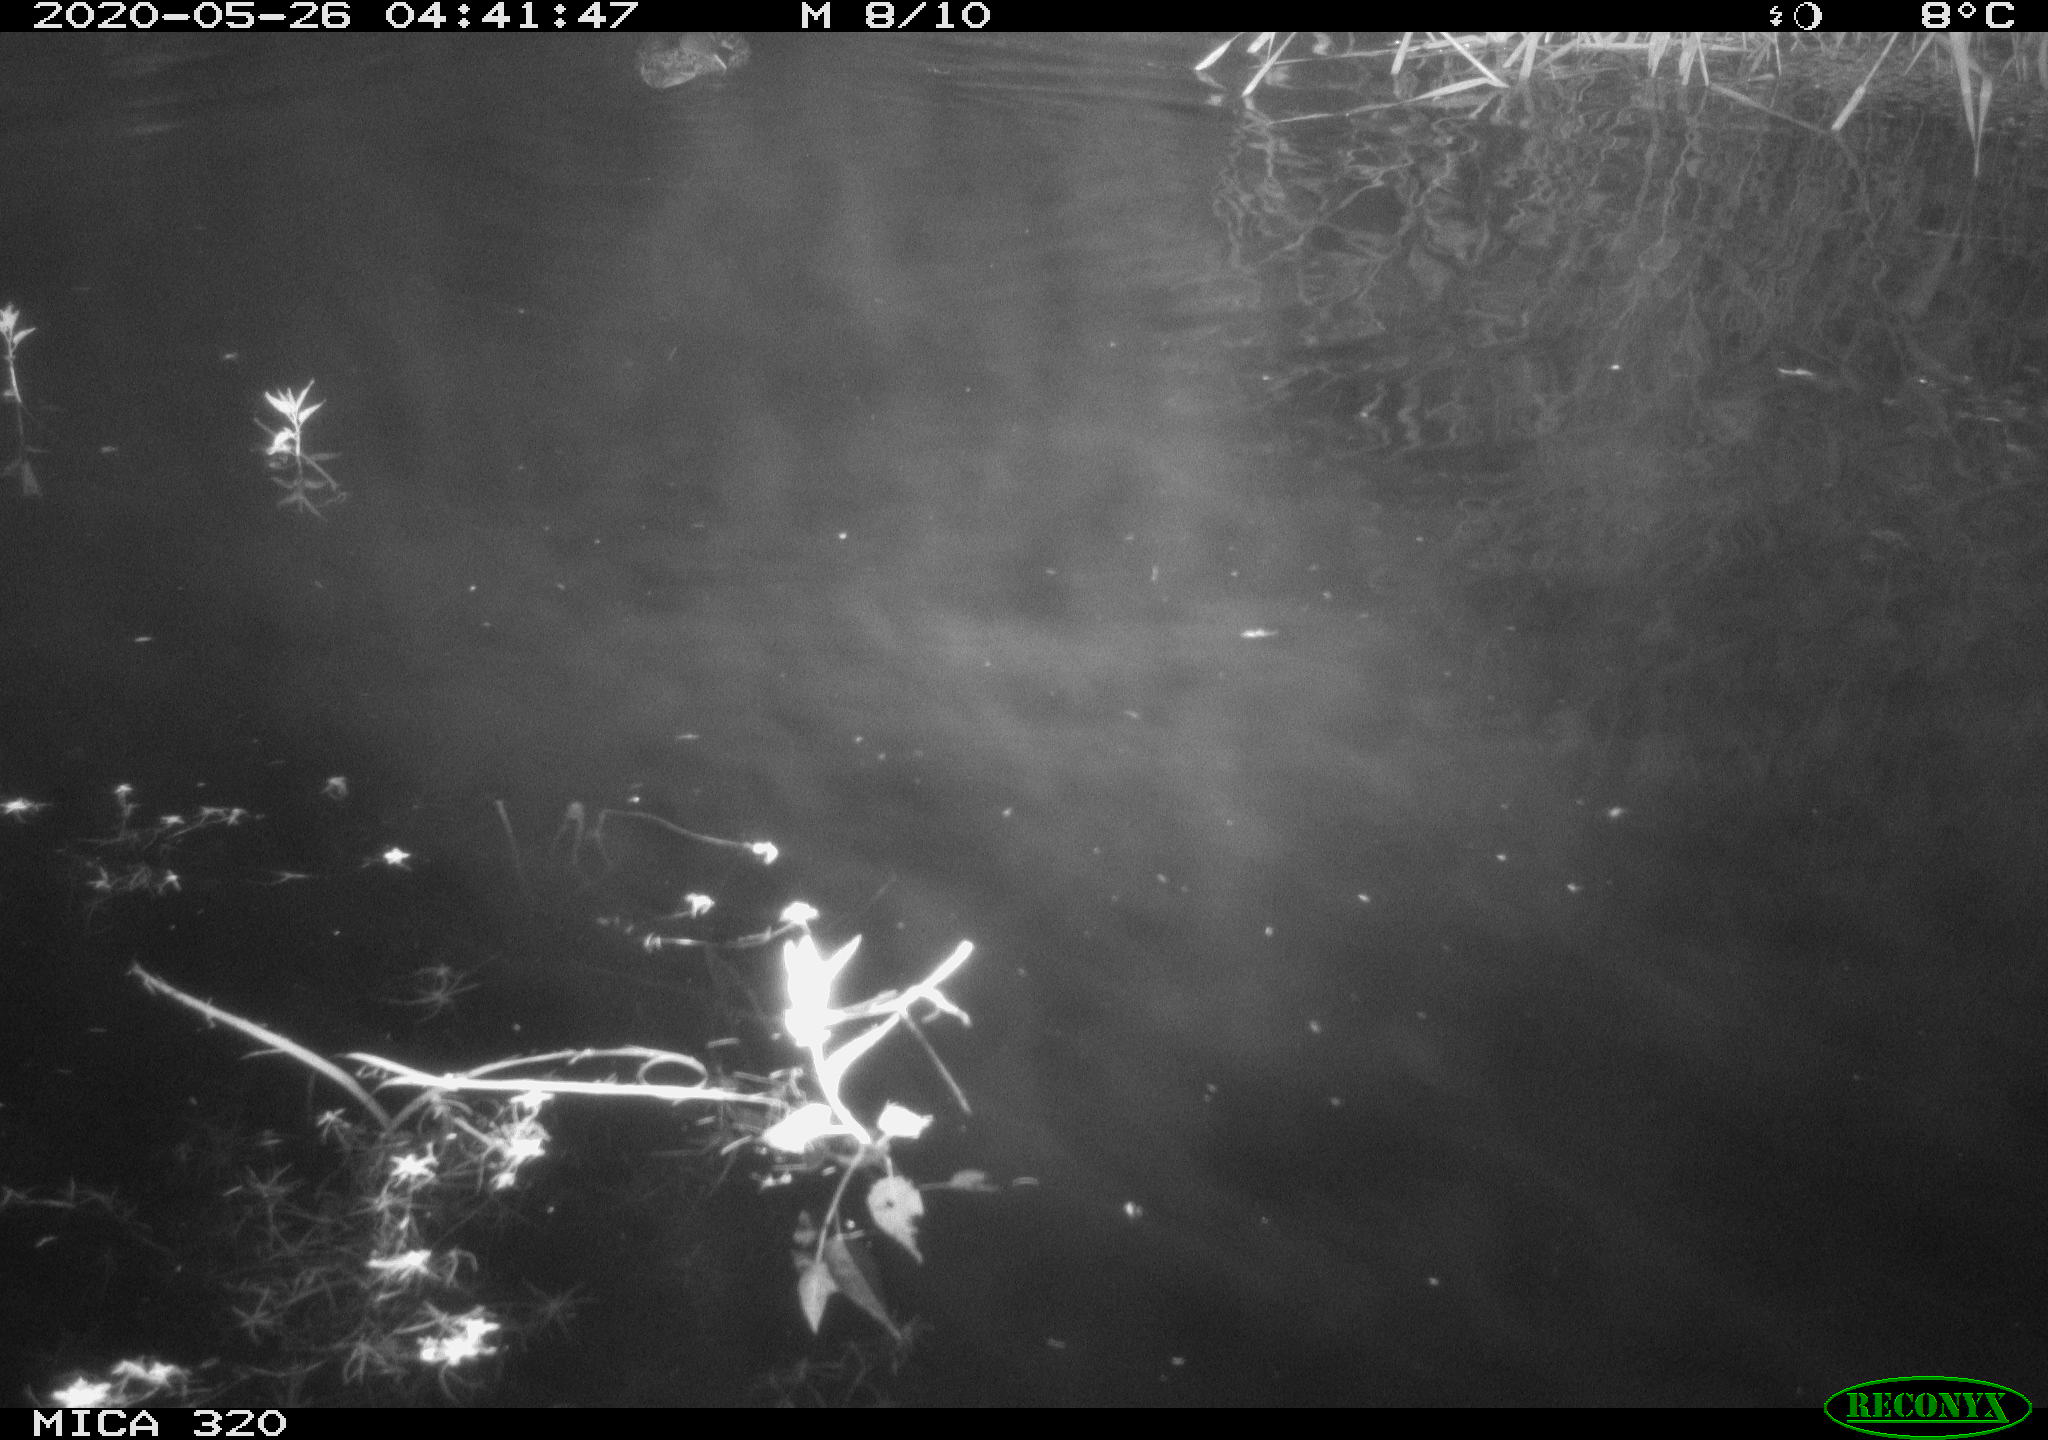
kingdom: Animalia
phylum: Chordata
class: Aves
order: Anseriformes
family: Anatidae
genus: Anas
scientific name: Anas platyrhynchos
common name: Mallard
